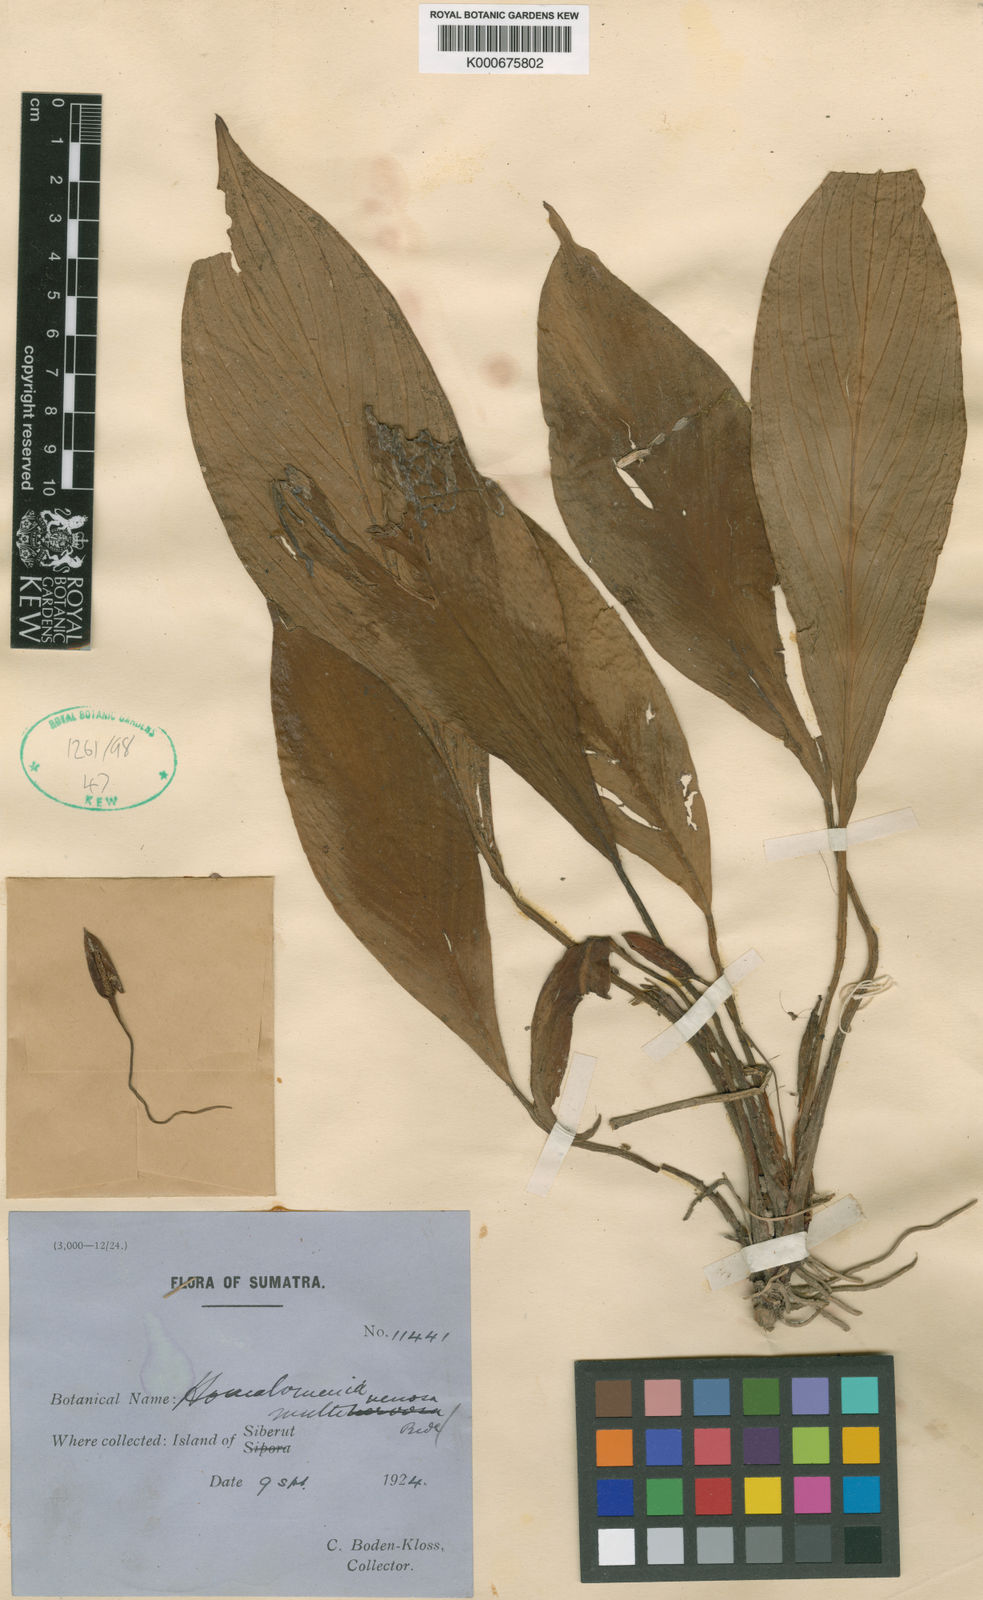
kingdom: Plantae
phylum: Tracheophyta
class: Liliopsida
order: Alismatales
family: Araceae
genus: Homalomena
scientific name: Homalomena batoeensis
